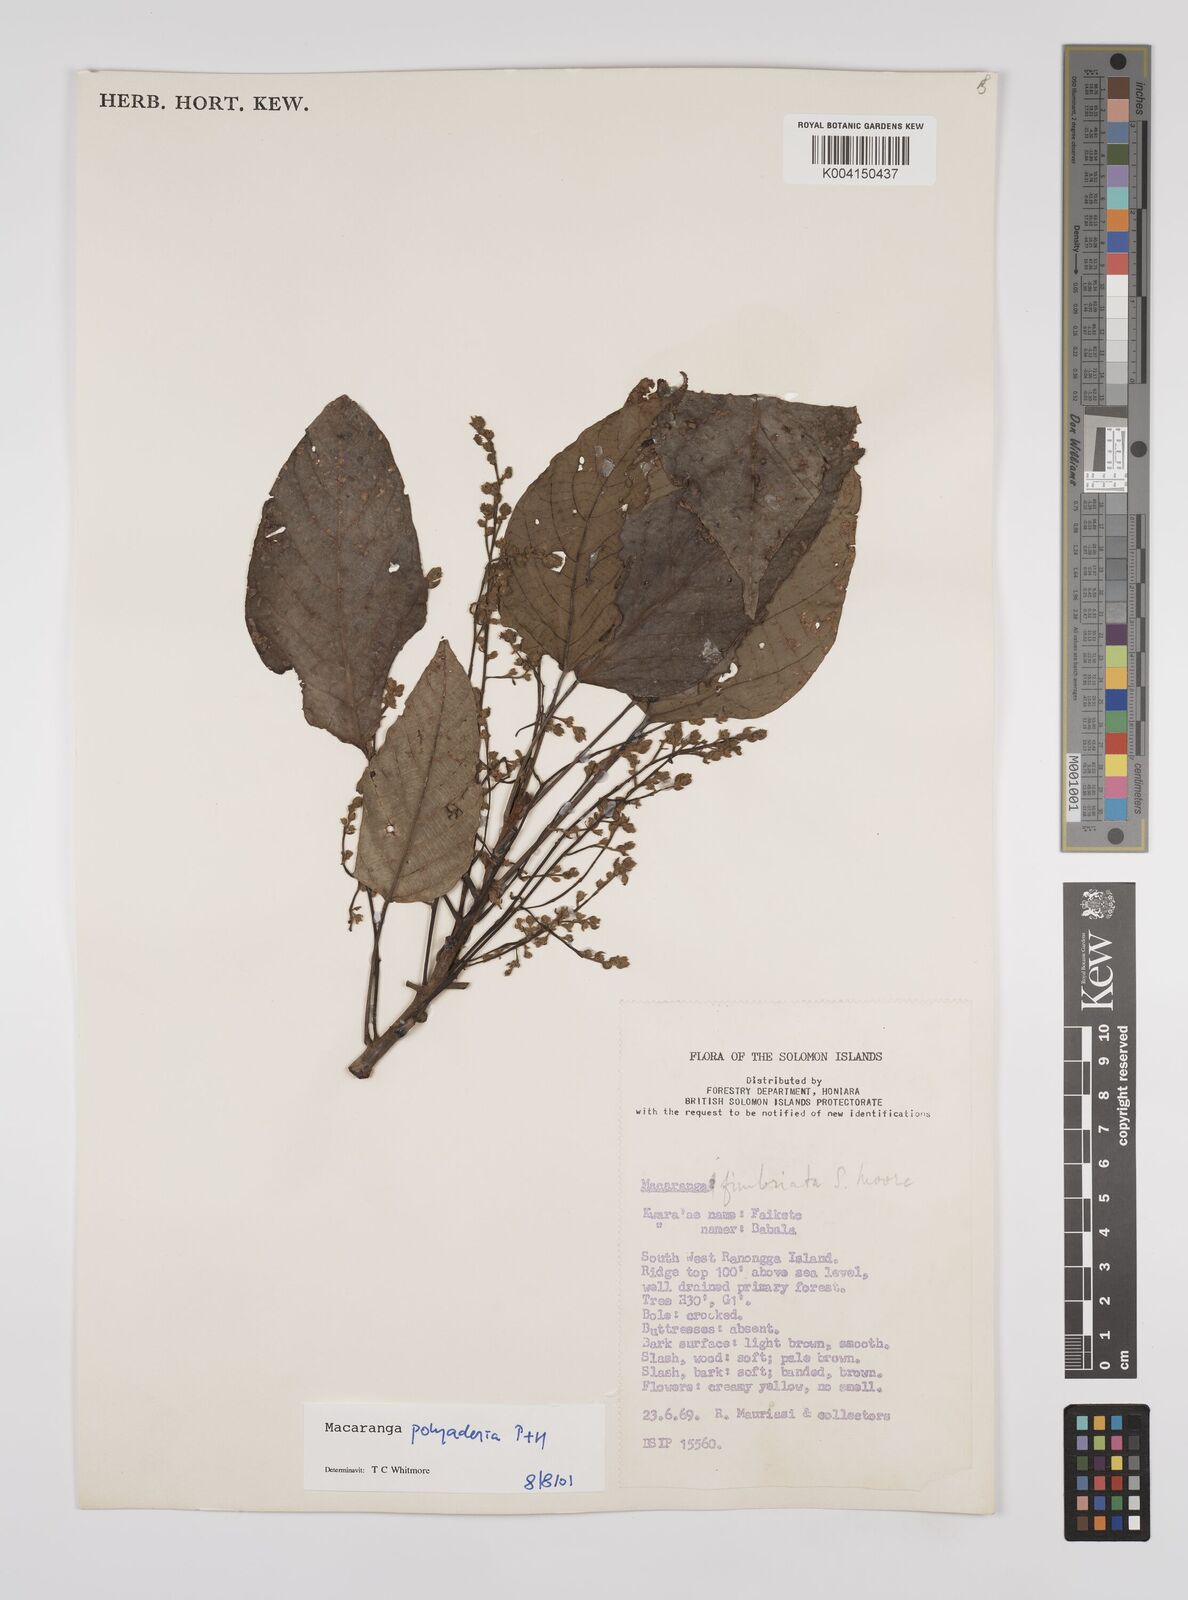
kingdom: Plantae
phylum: Tracheophyta
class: Magnoliopsida
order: Malpighiales
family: Euphorbiaceae
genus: Macaranga
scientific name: Macaranga polyadenia
